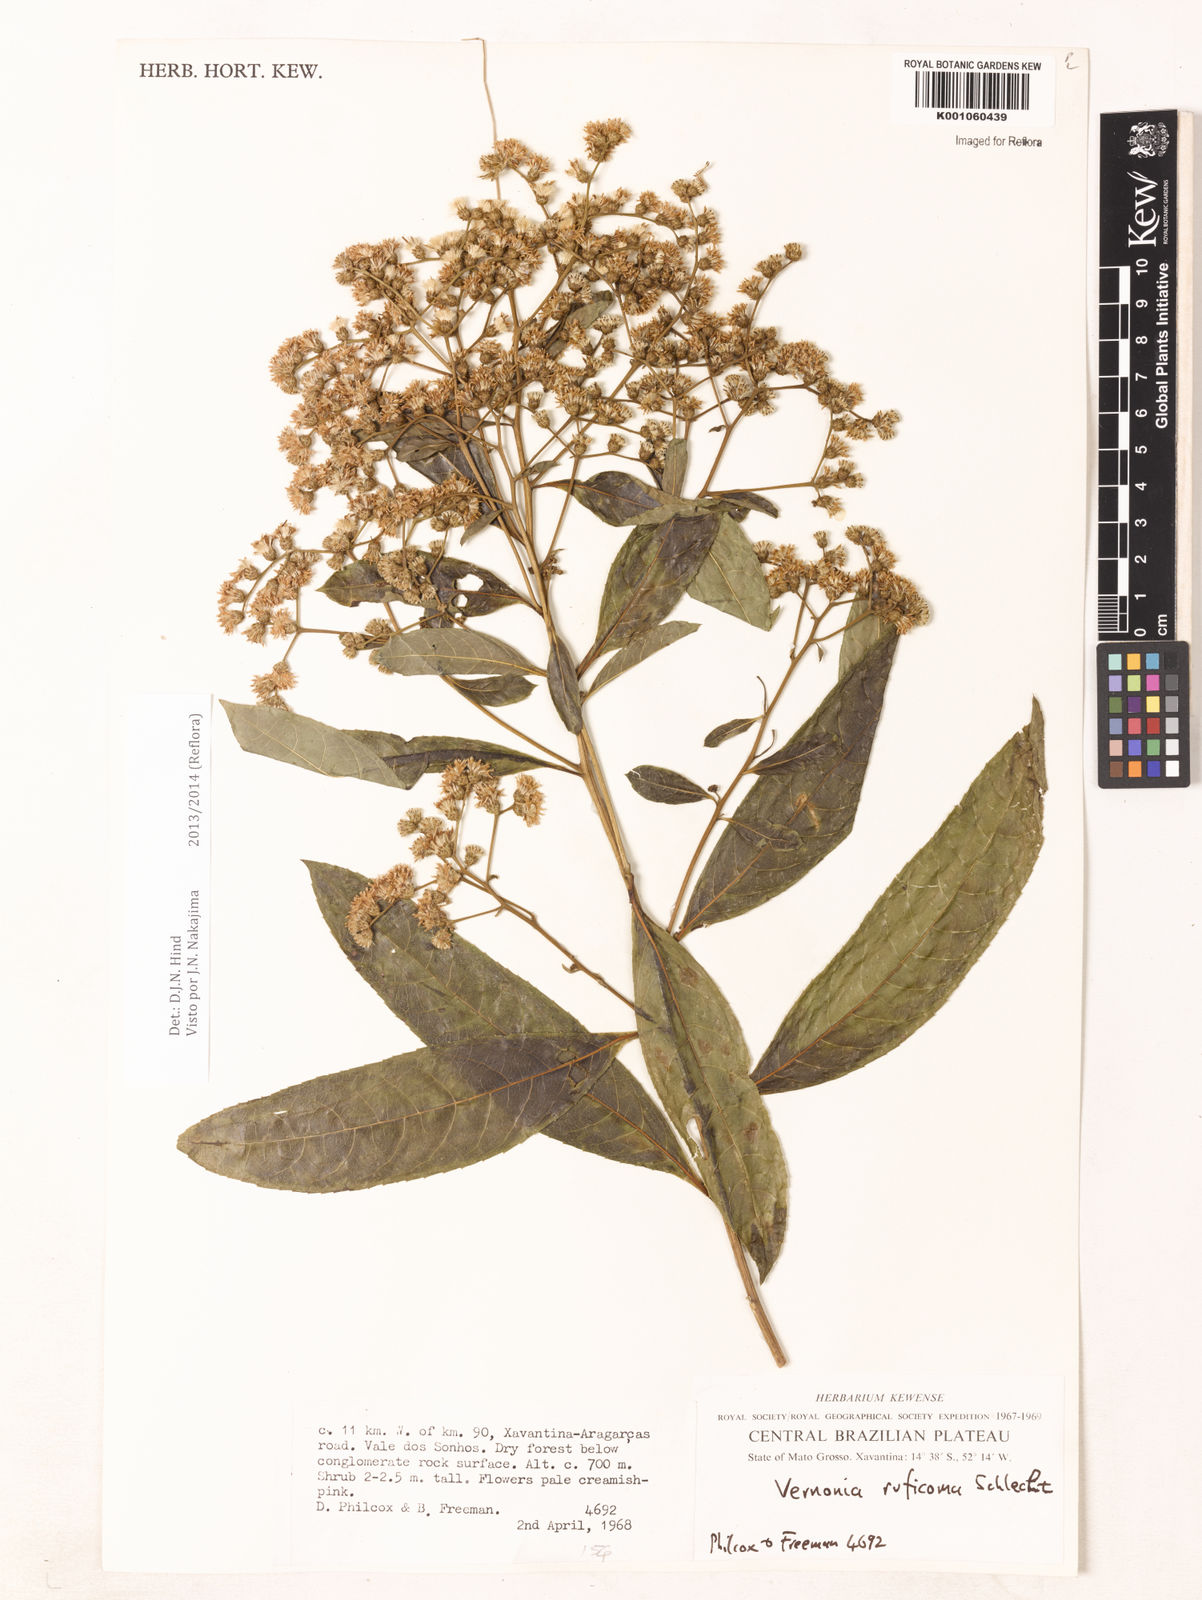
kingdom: Plantae
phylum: Tracheophyta
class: Magnoliopsida
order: Asterales
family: Asteraceae
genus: Vernonia
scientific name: Vernonia
